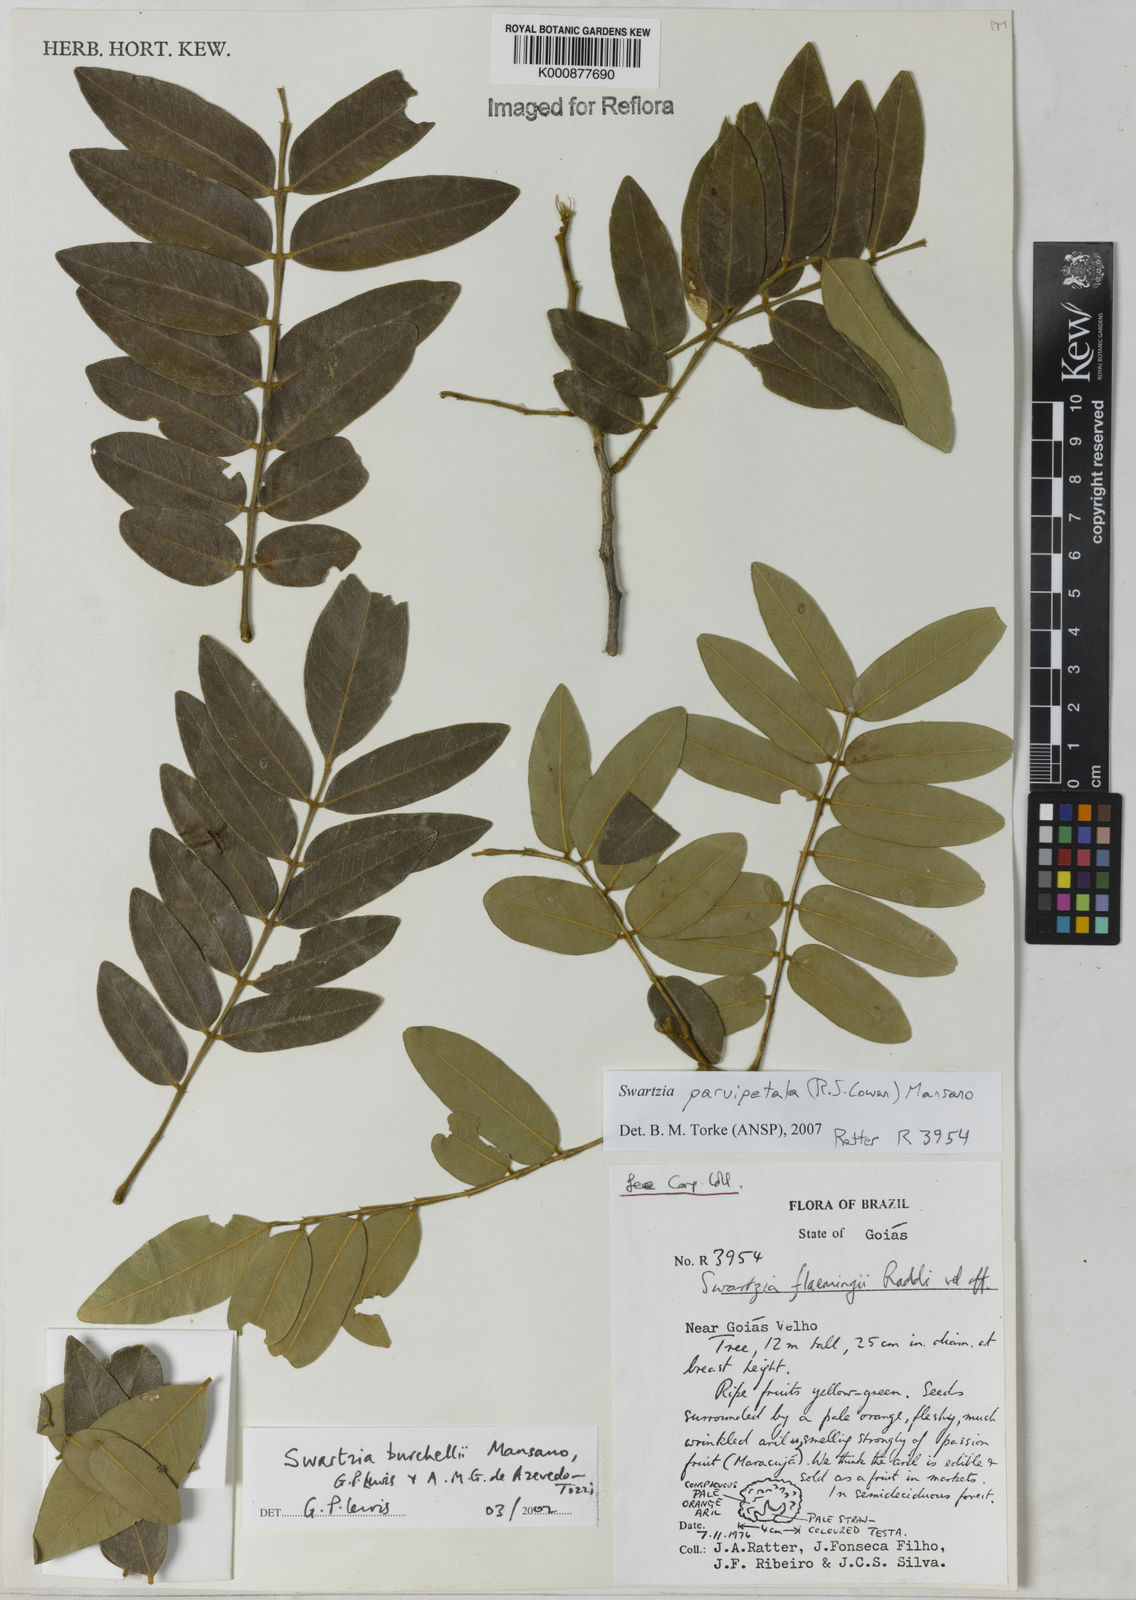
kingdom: Plantae
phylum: Tracheophyta
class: Magnoliopsida
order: Fabales
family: Fabaceae
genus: Swartzia
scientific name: Swartzia parvipetala
